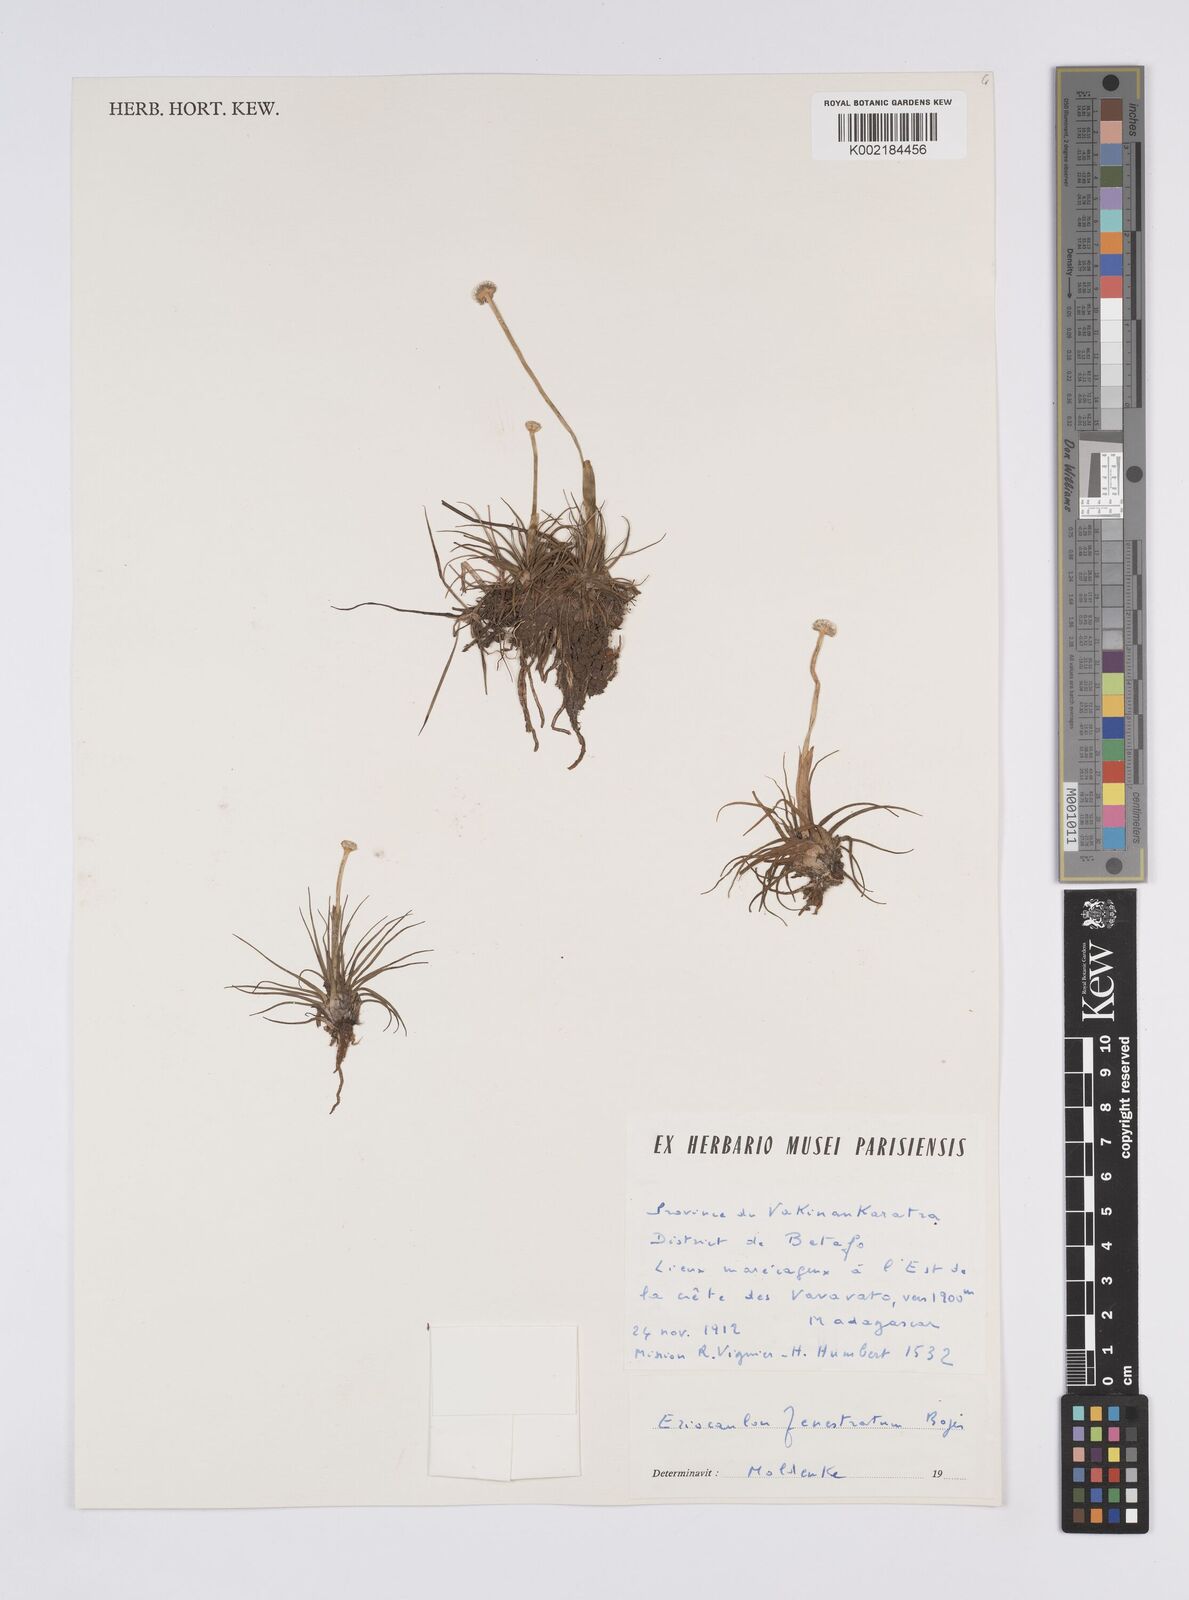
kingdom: Plantae
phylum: Tracheophyta
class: Liliopsida
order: Poales
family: Eriocaulaceae
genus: Eriocaulon
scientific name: Eriocaulon fenestratum
